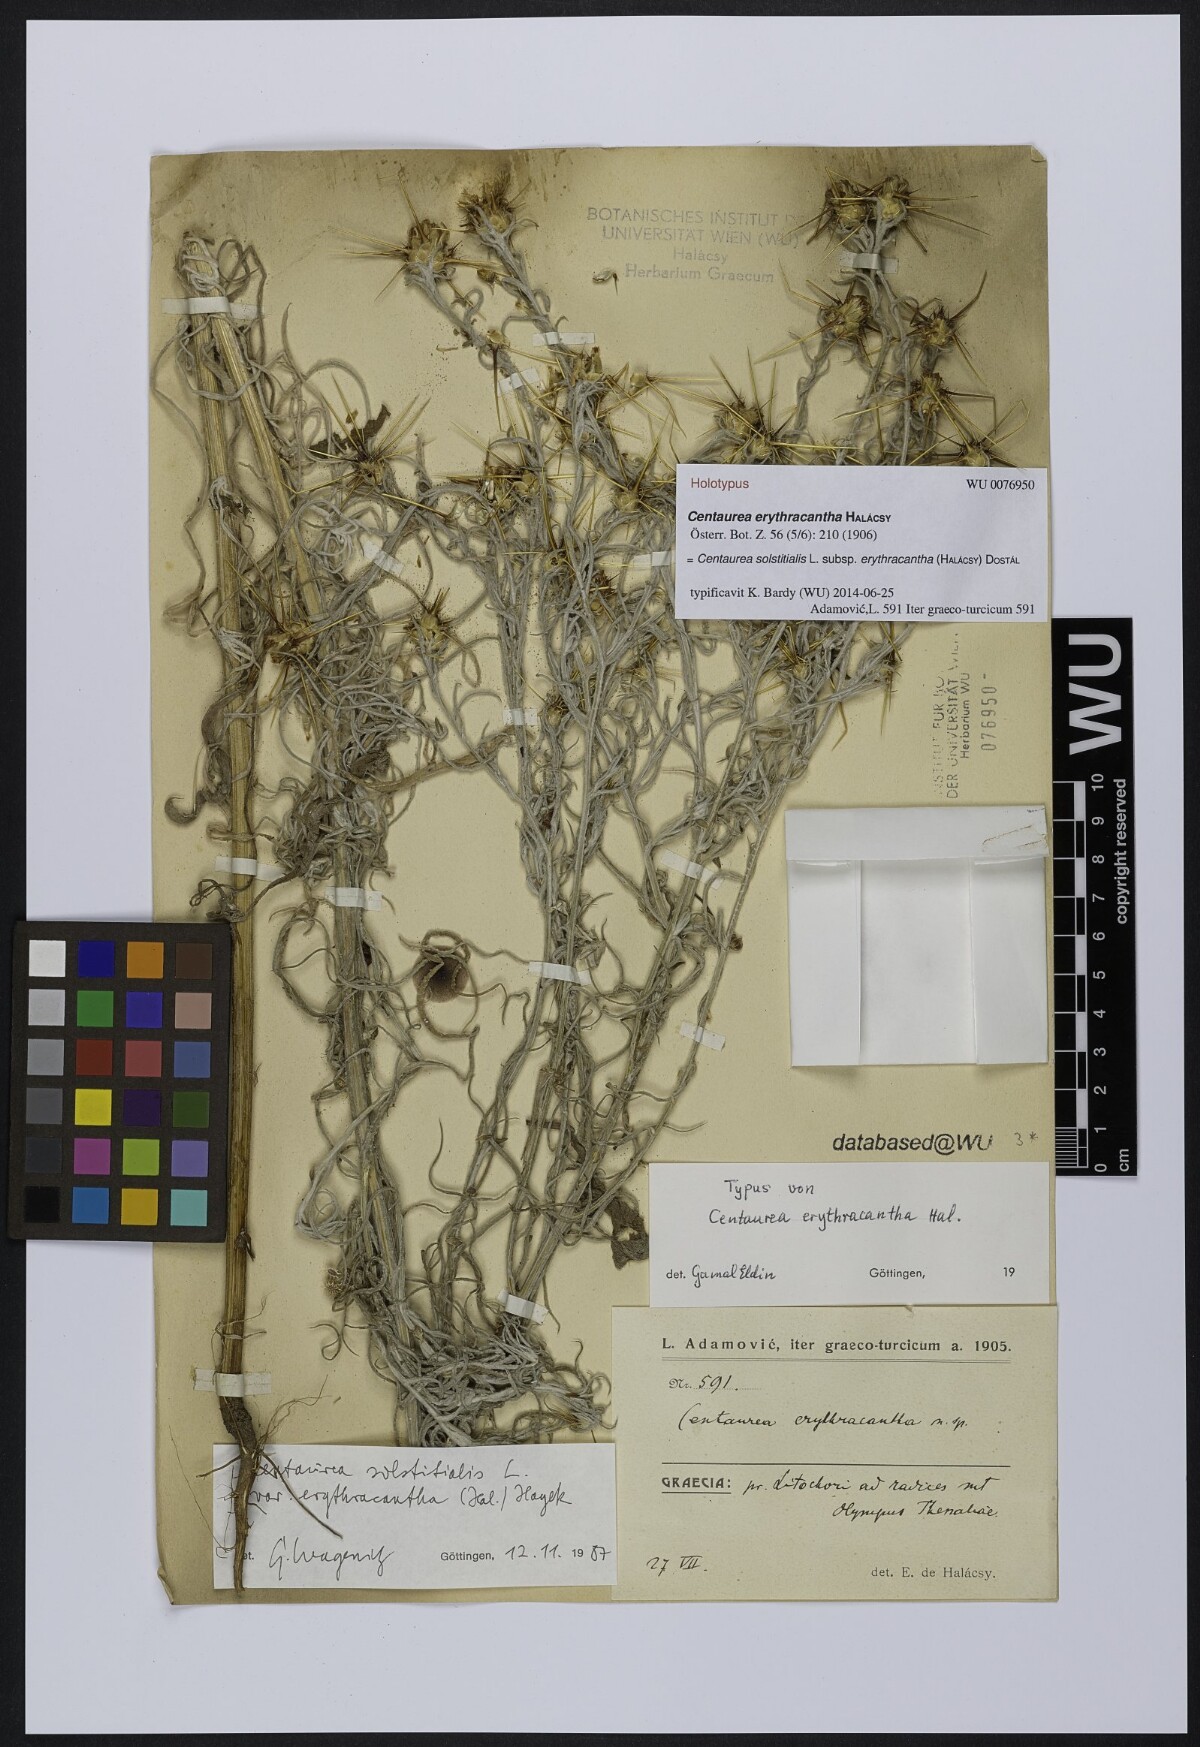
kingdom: Plantae
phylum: Tracheophyta
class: Magnoliopsida
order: Asterales
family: Asteraceae
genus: Centaurea
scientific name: Centaurea solstitialis
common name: Yellow star-thistle
